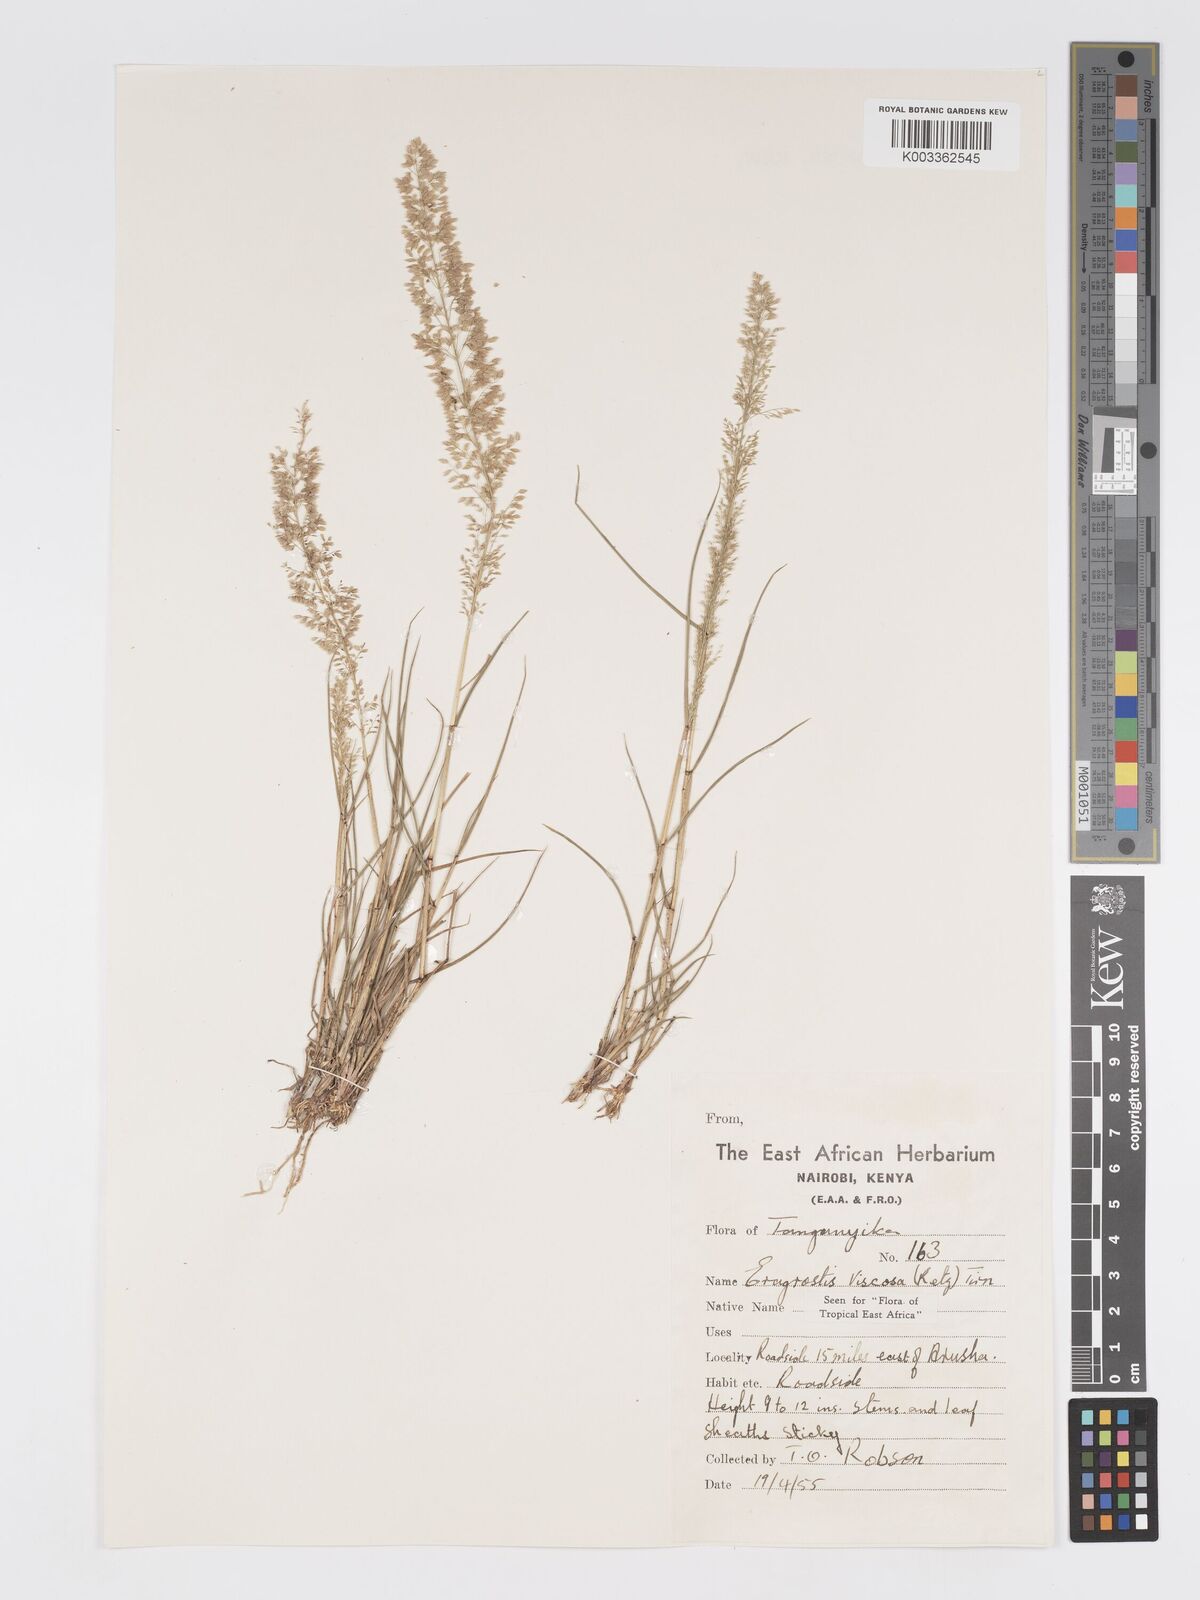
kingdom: Plantae
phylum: Tracheophyta
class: Liliopsida
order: Poales
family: Poaceae
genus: Eragrostis
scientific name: Eragrostis viscosa
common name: Sticky love grass
